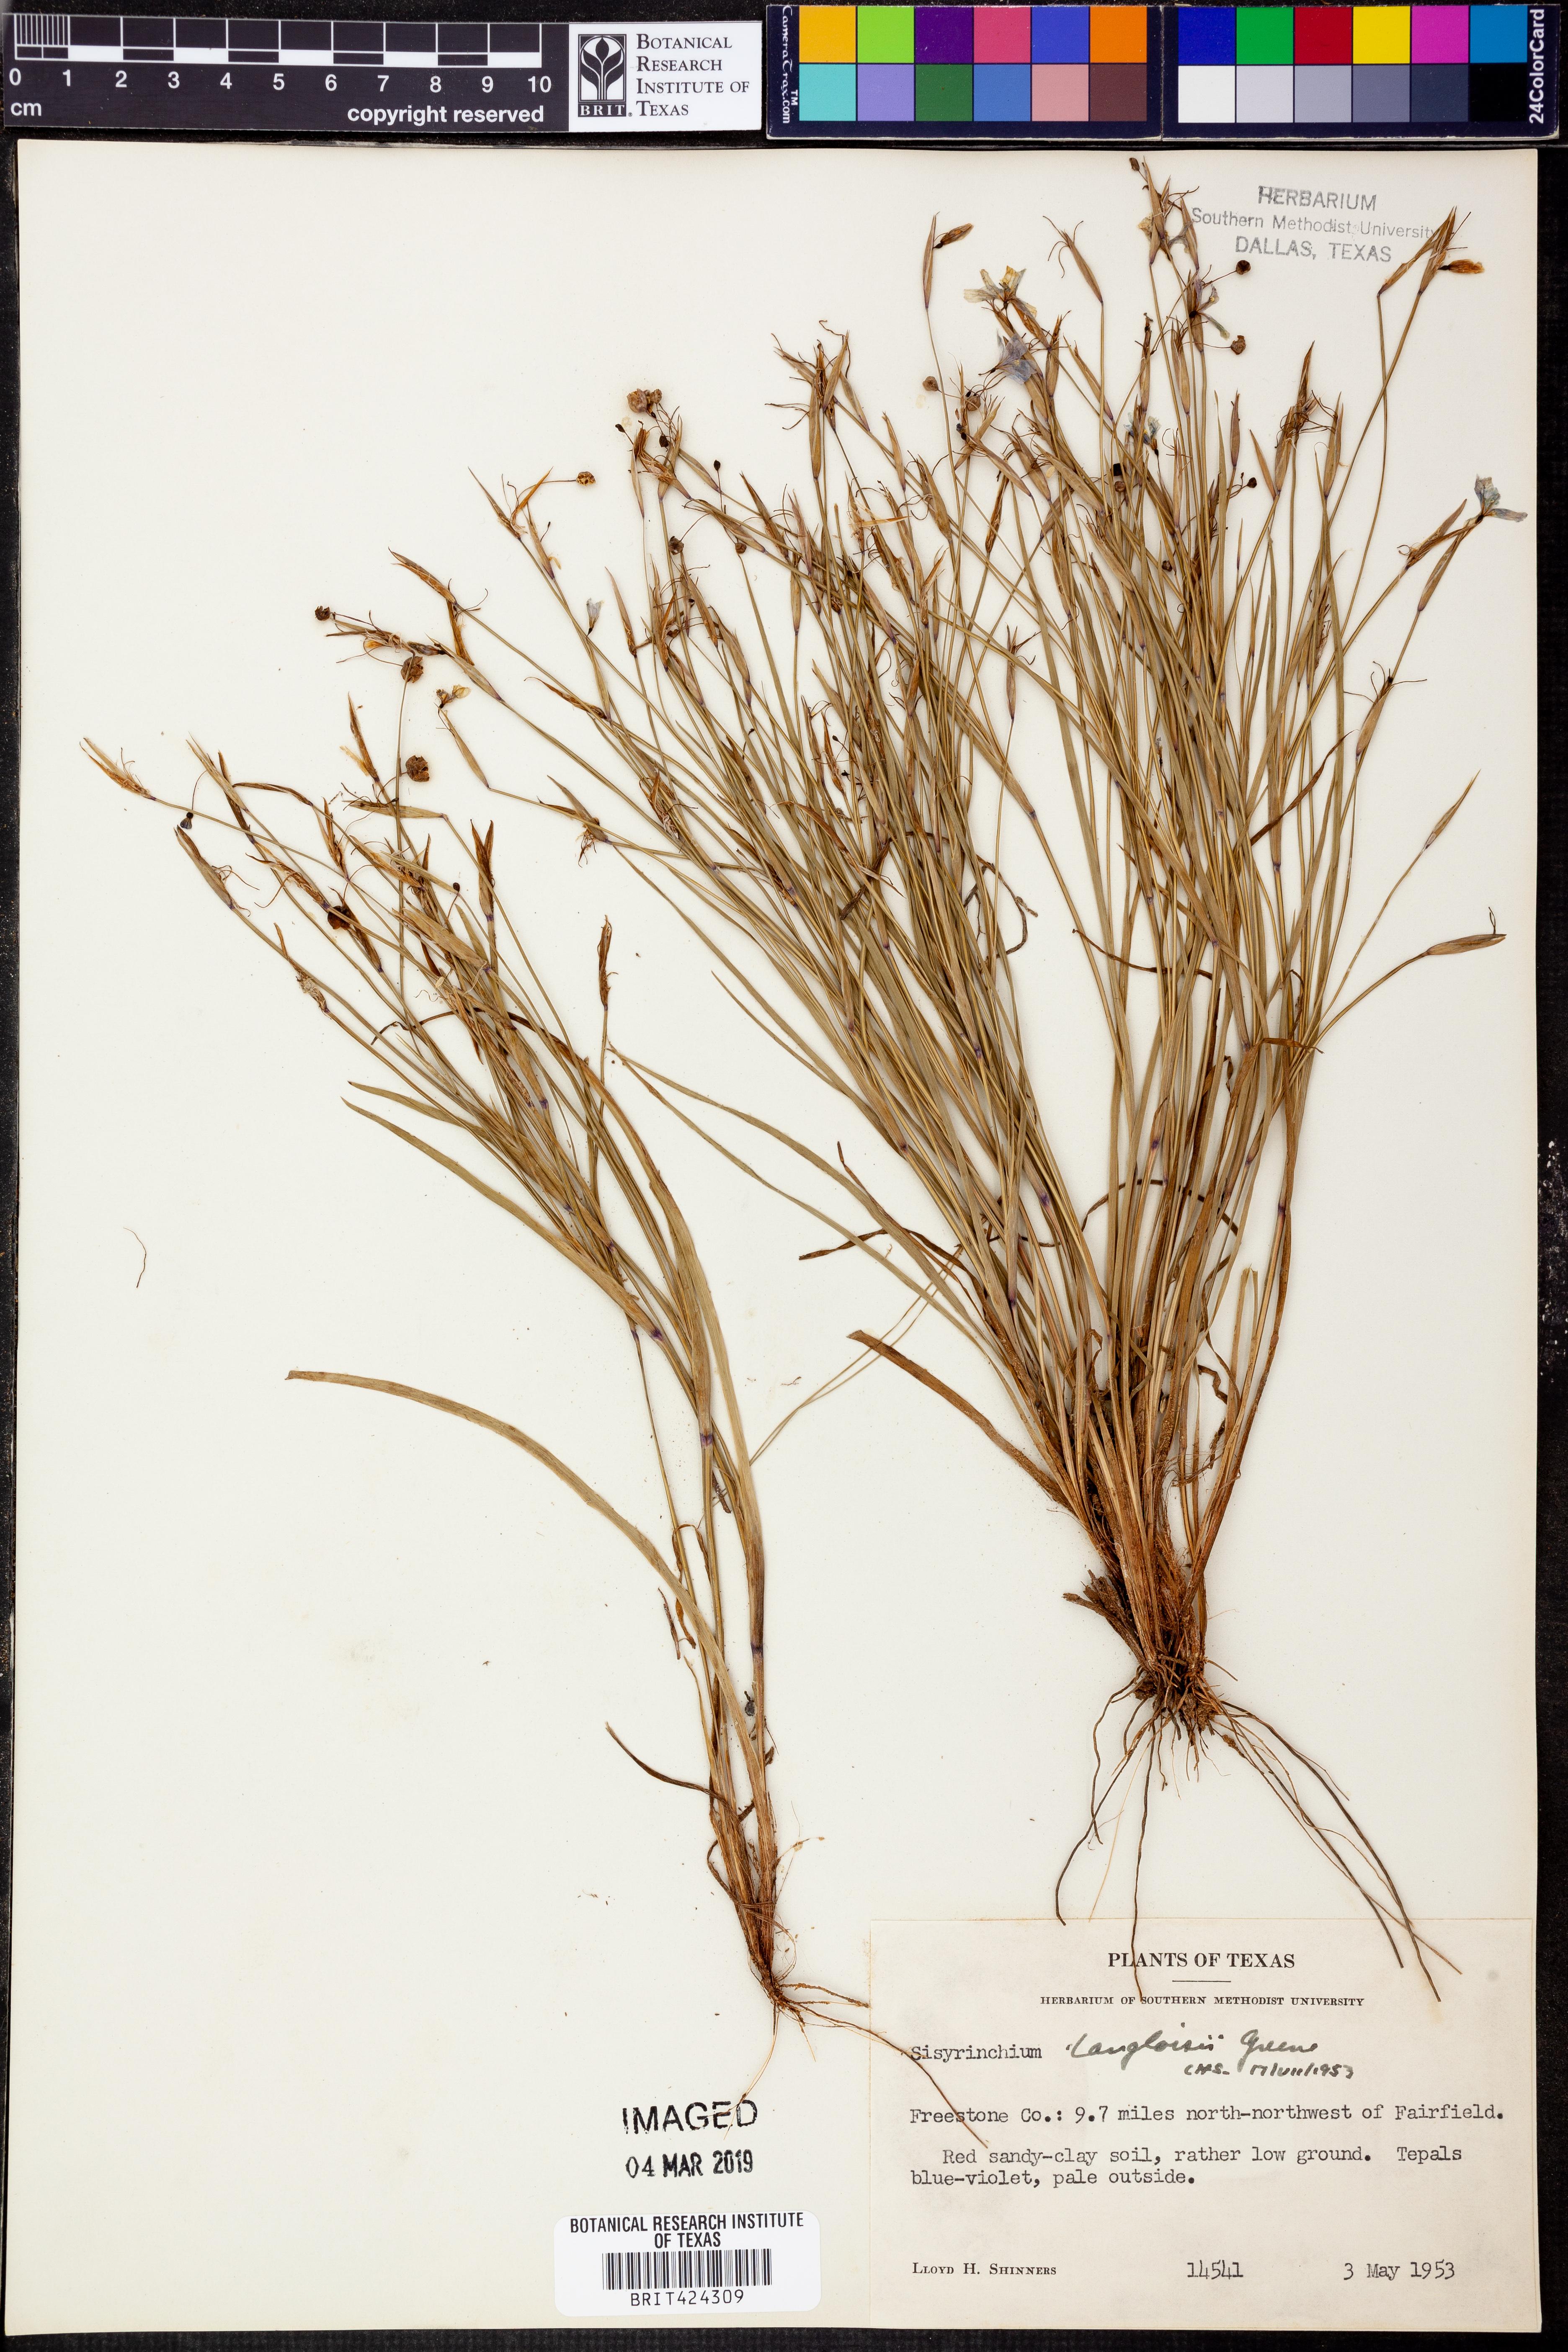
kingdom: Plantae
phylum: Tracheophyta
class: Liliopsida
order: Asparagales
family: Iridaceae
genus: Sisyrinchium
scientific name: Sisyrinchium langloisii
